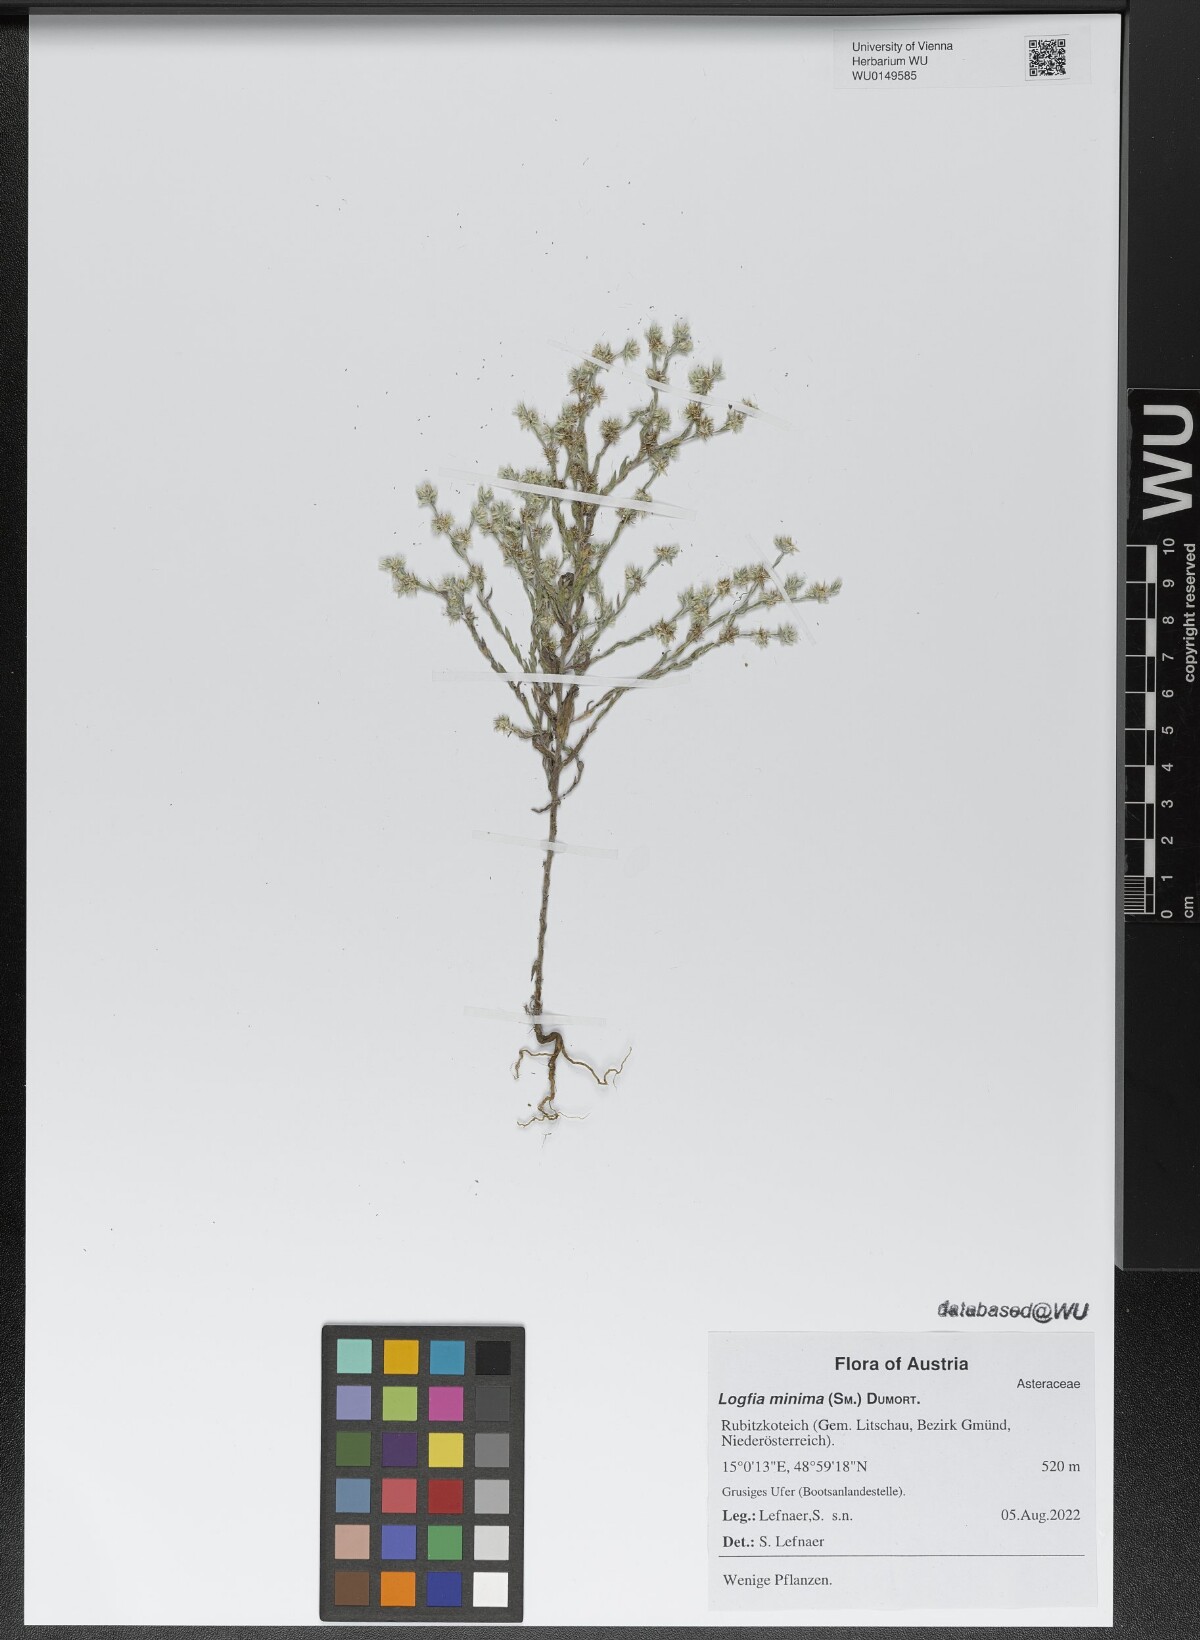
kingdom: Plantae
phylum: Tracheophyta
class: Magnoliopsida
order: Asterales
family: Asteraceae
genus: Logfia
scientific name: Logfia minima
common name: Little cottonrose
